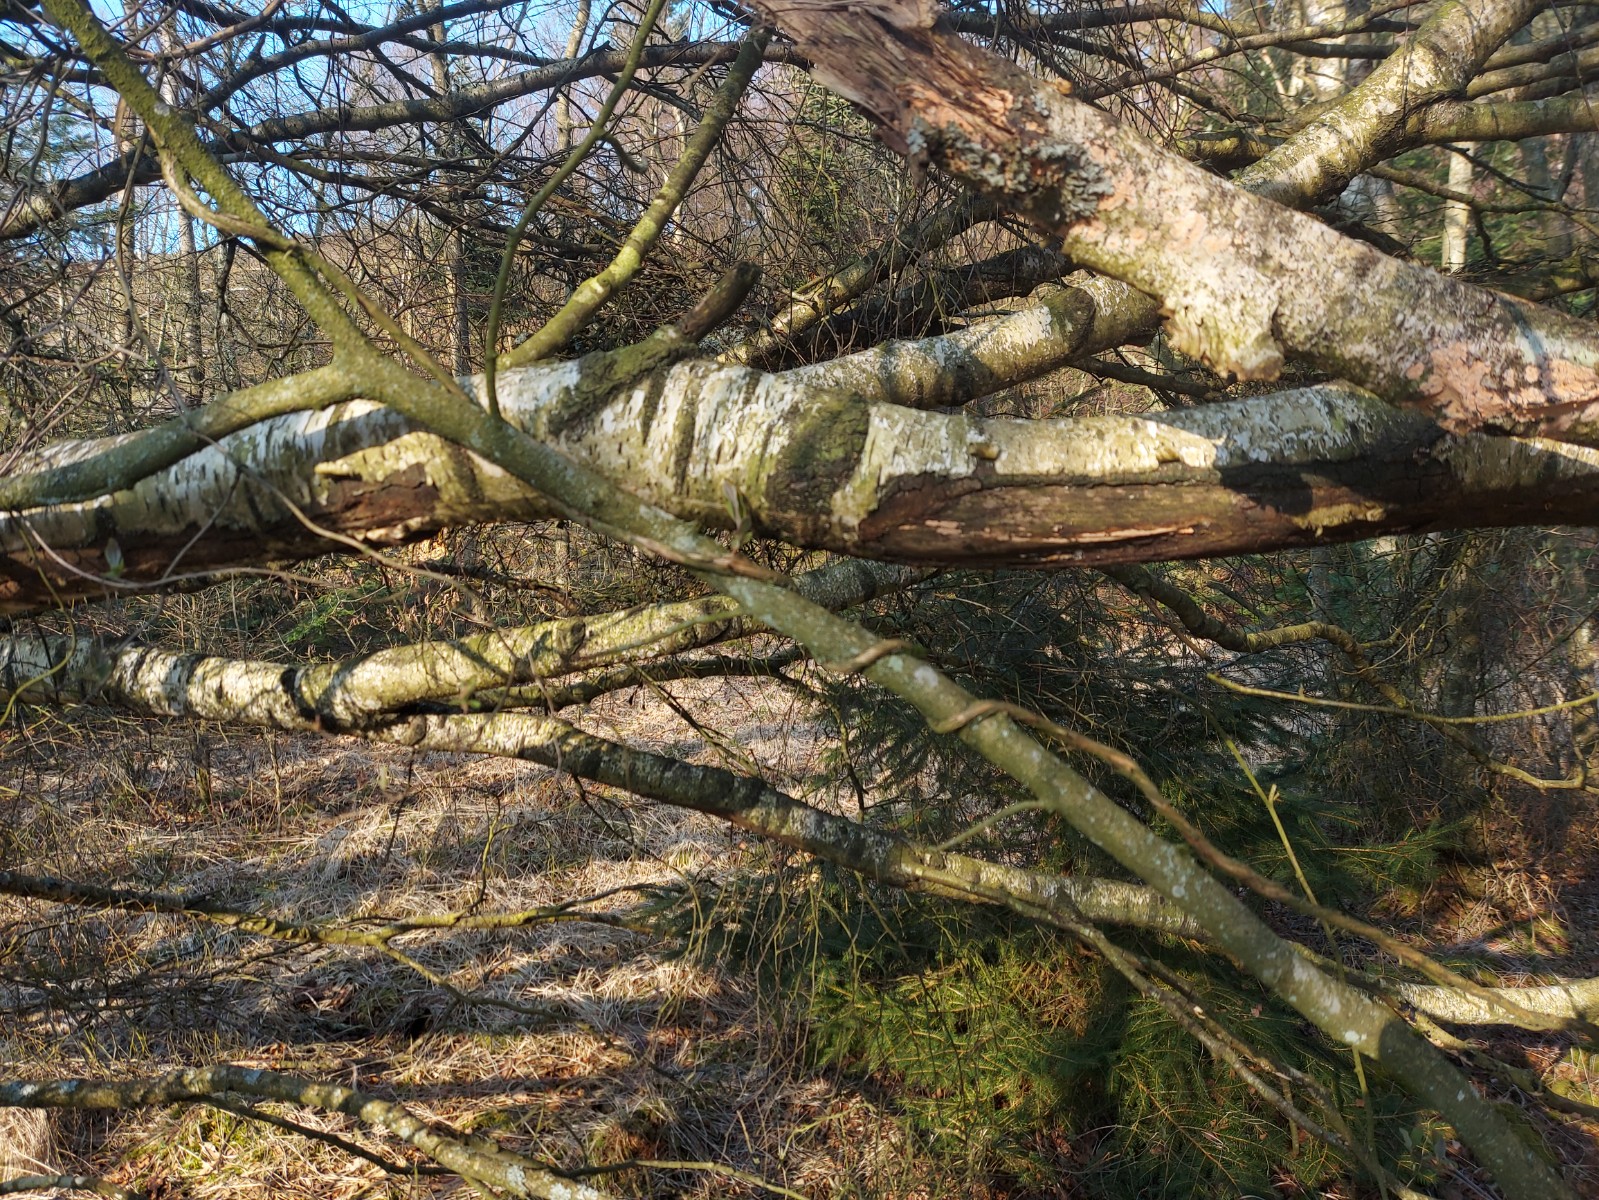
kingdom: Fungi
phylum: Ascomycota
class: Sordariomycetes
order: Hypocreales
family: Nectriaceae
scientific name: Nectriaceae
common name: cinnobersvampfamilien
